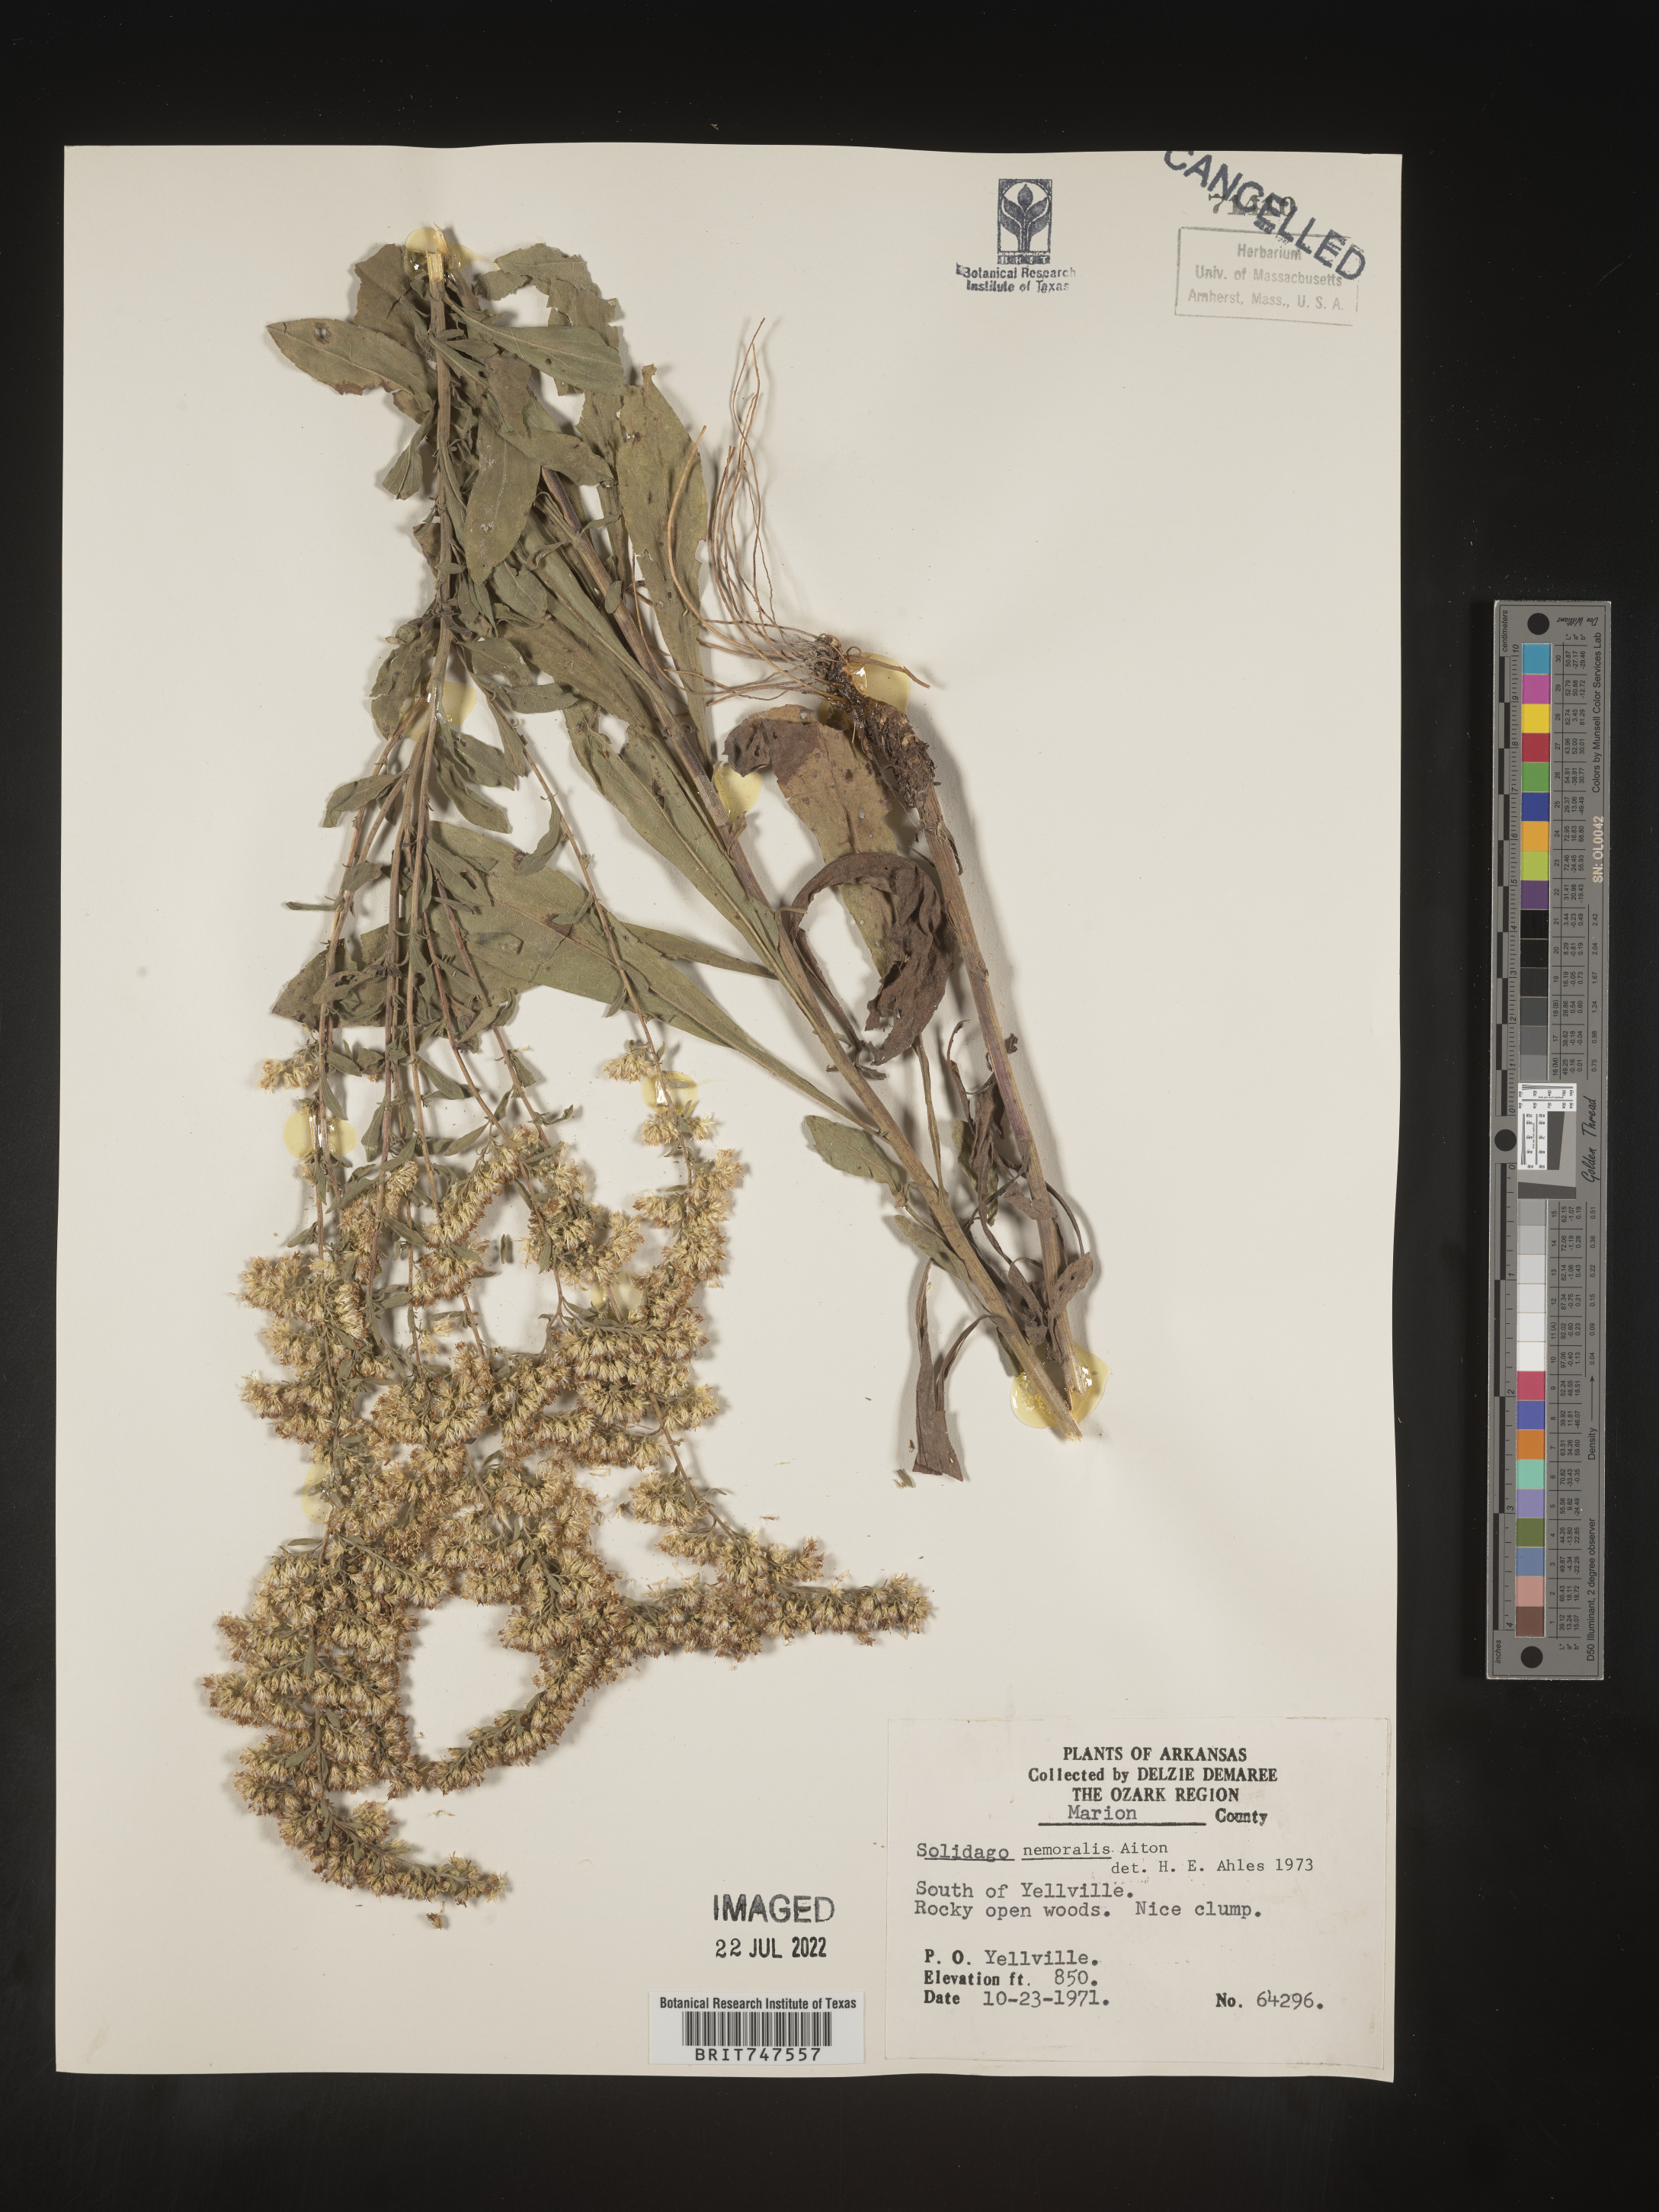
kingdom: Plantae
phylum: Tracheophyta
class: Magnoliopsida
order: Asterales
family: Asteraceae
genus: Solidago
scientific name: Solidago nemoralis
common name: Grey goldenrod
